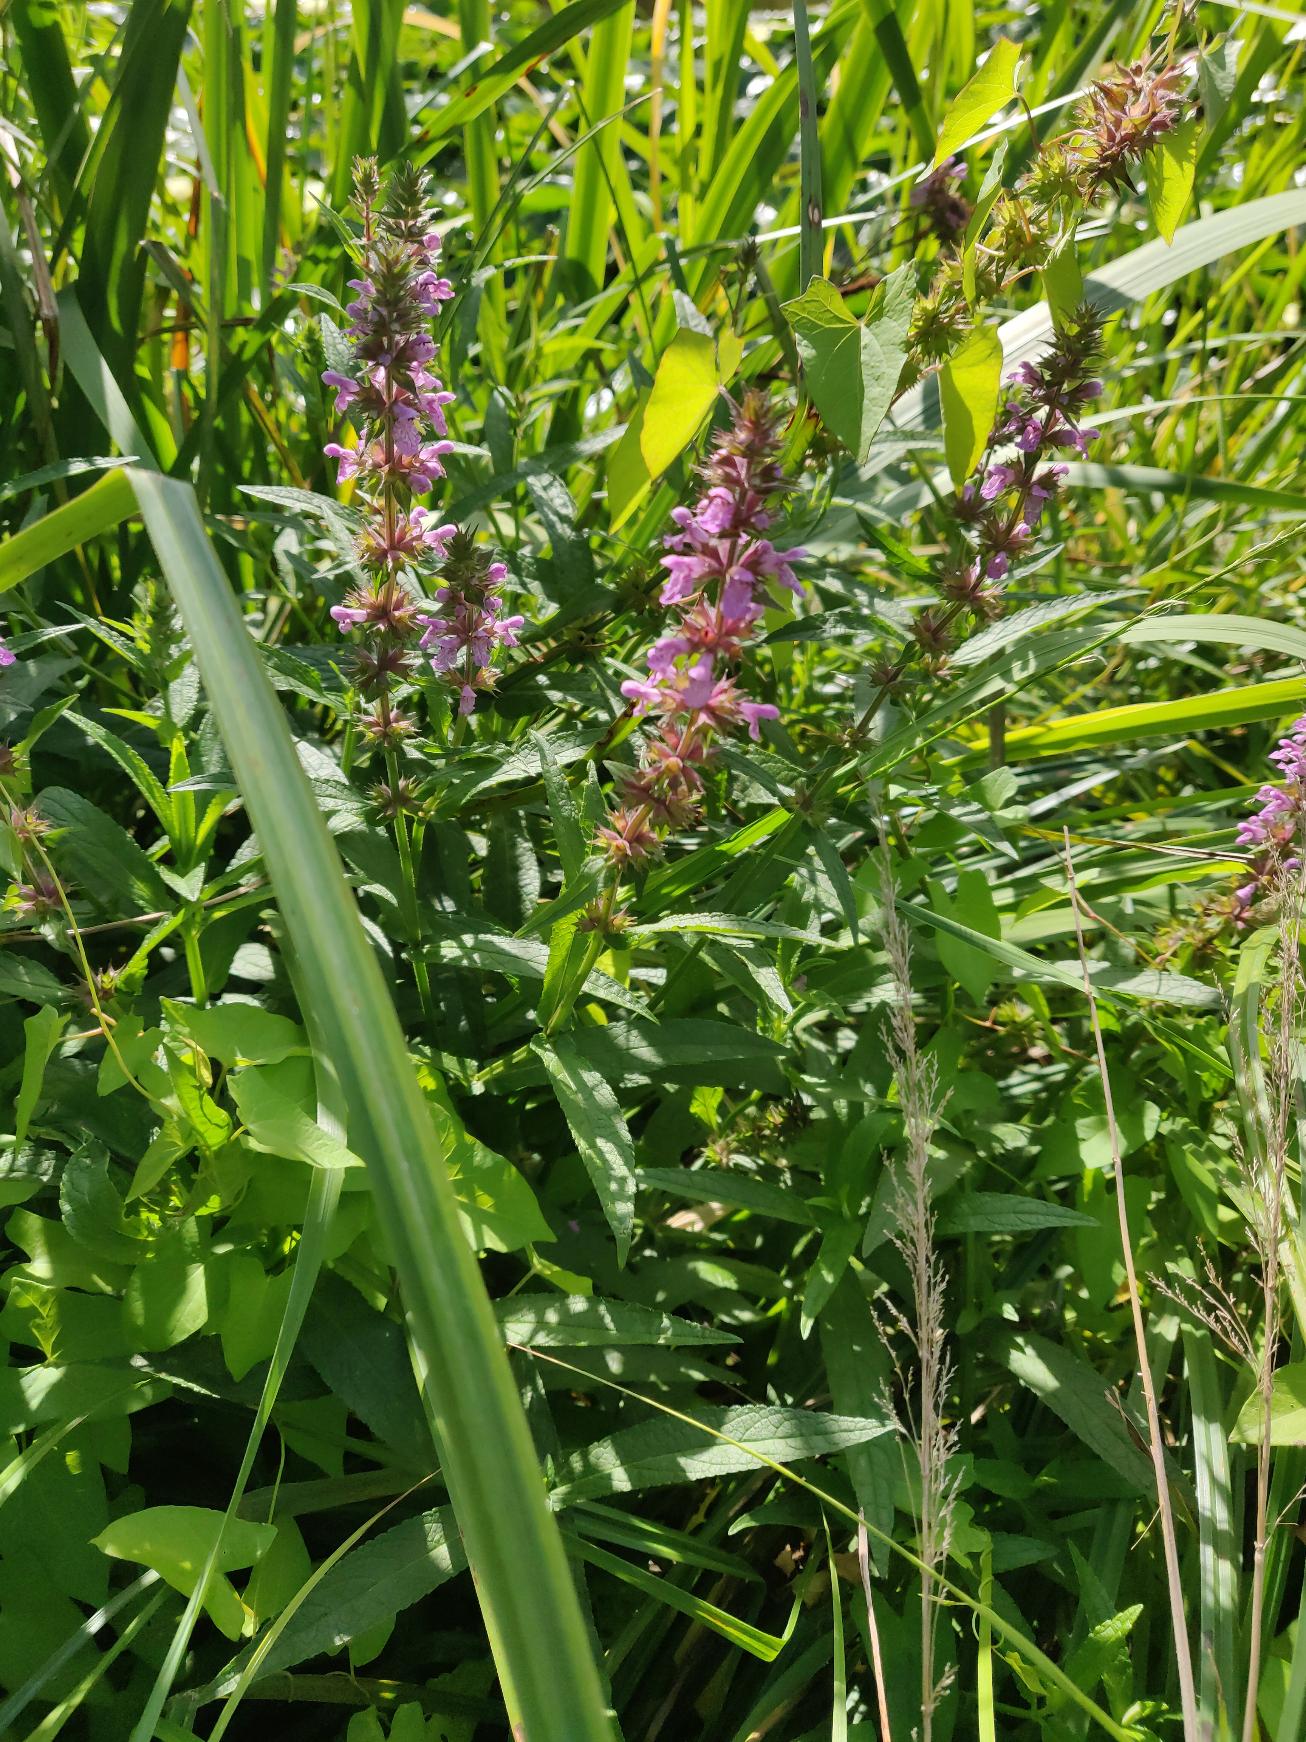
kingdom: Plantae
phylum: Tracheophyta
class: Magnoliopsida
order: Lamiales
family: Lamiaceae
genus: Stachys
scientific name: Stachys palustris
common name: Kær-galtetand
